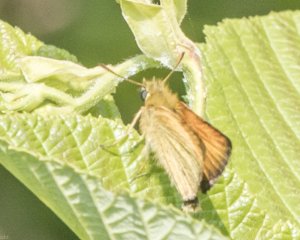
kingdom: Animalia
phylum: Arthropoda
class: Insecta
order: Lepidoptera
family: Hesperiidae
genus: Thymelicus
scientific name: Thymelicus lineola
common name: European Skipper
